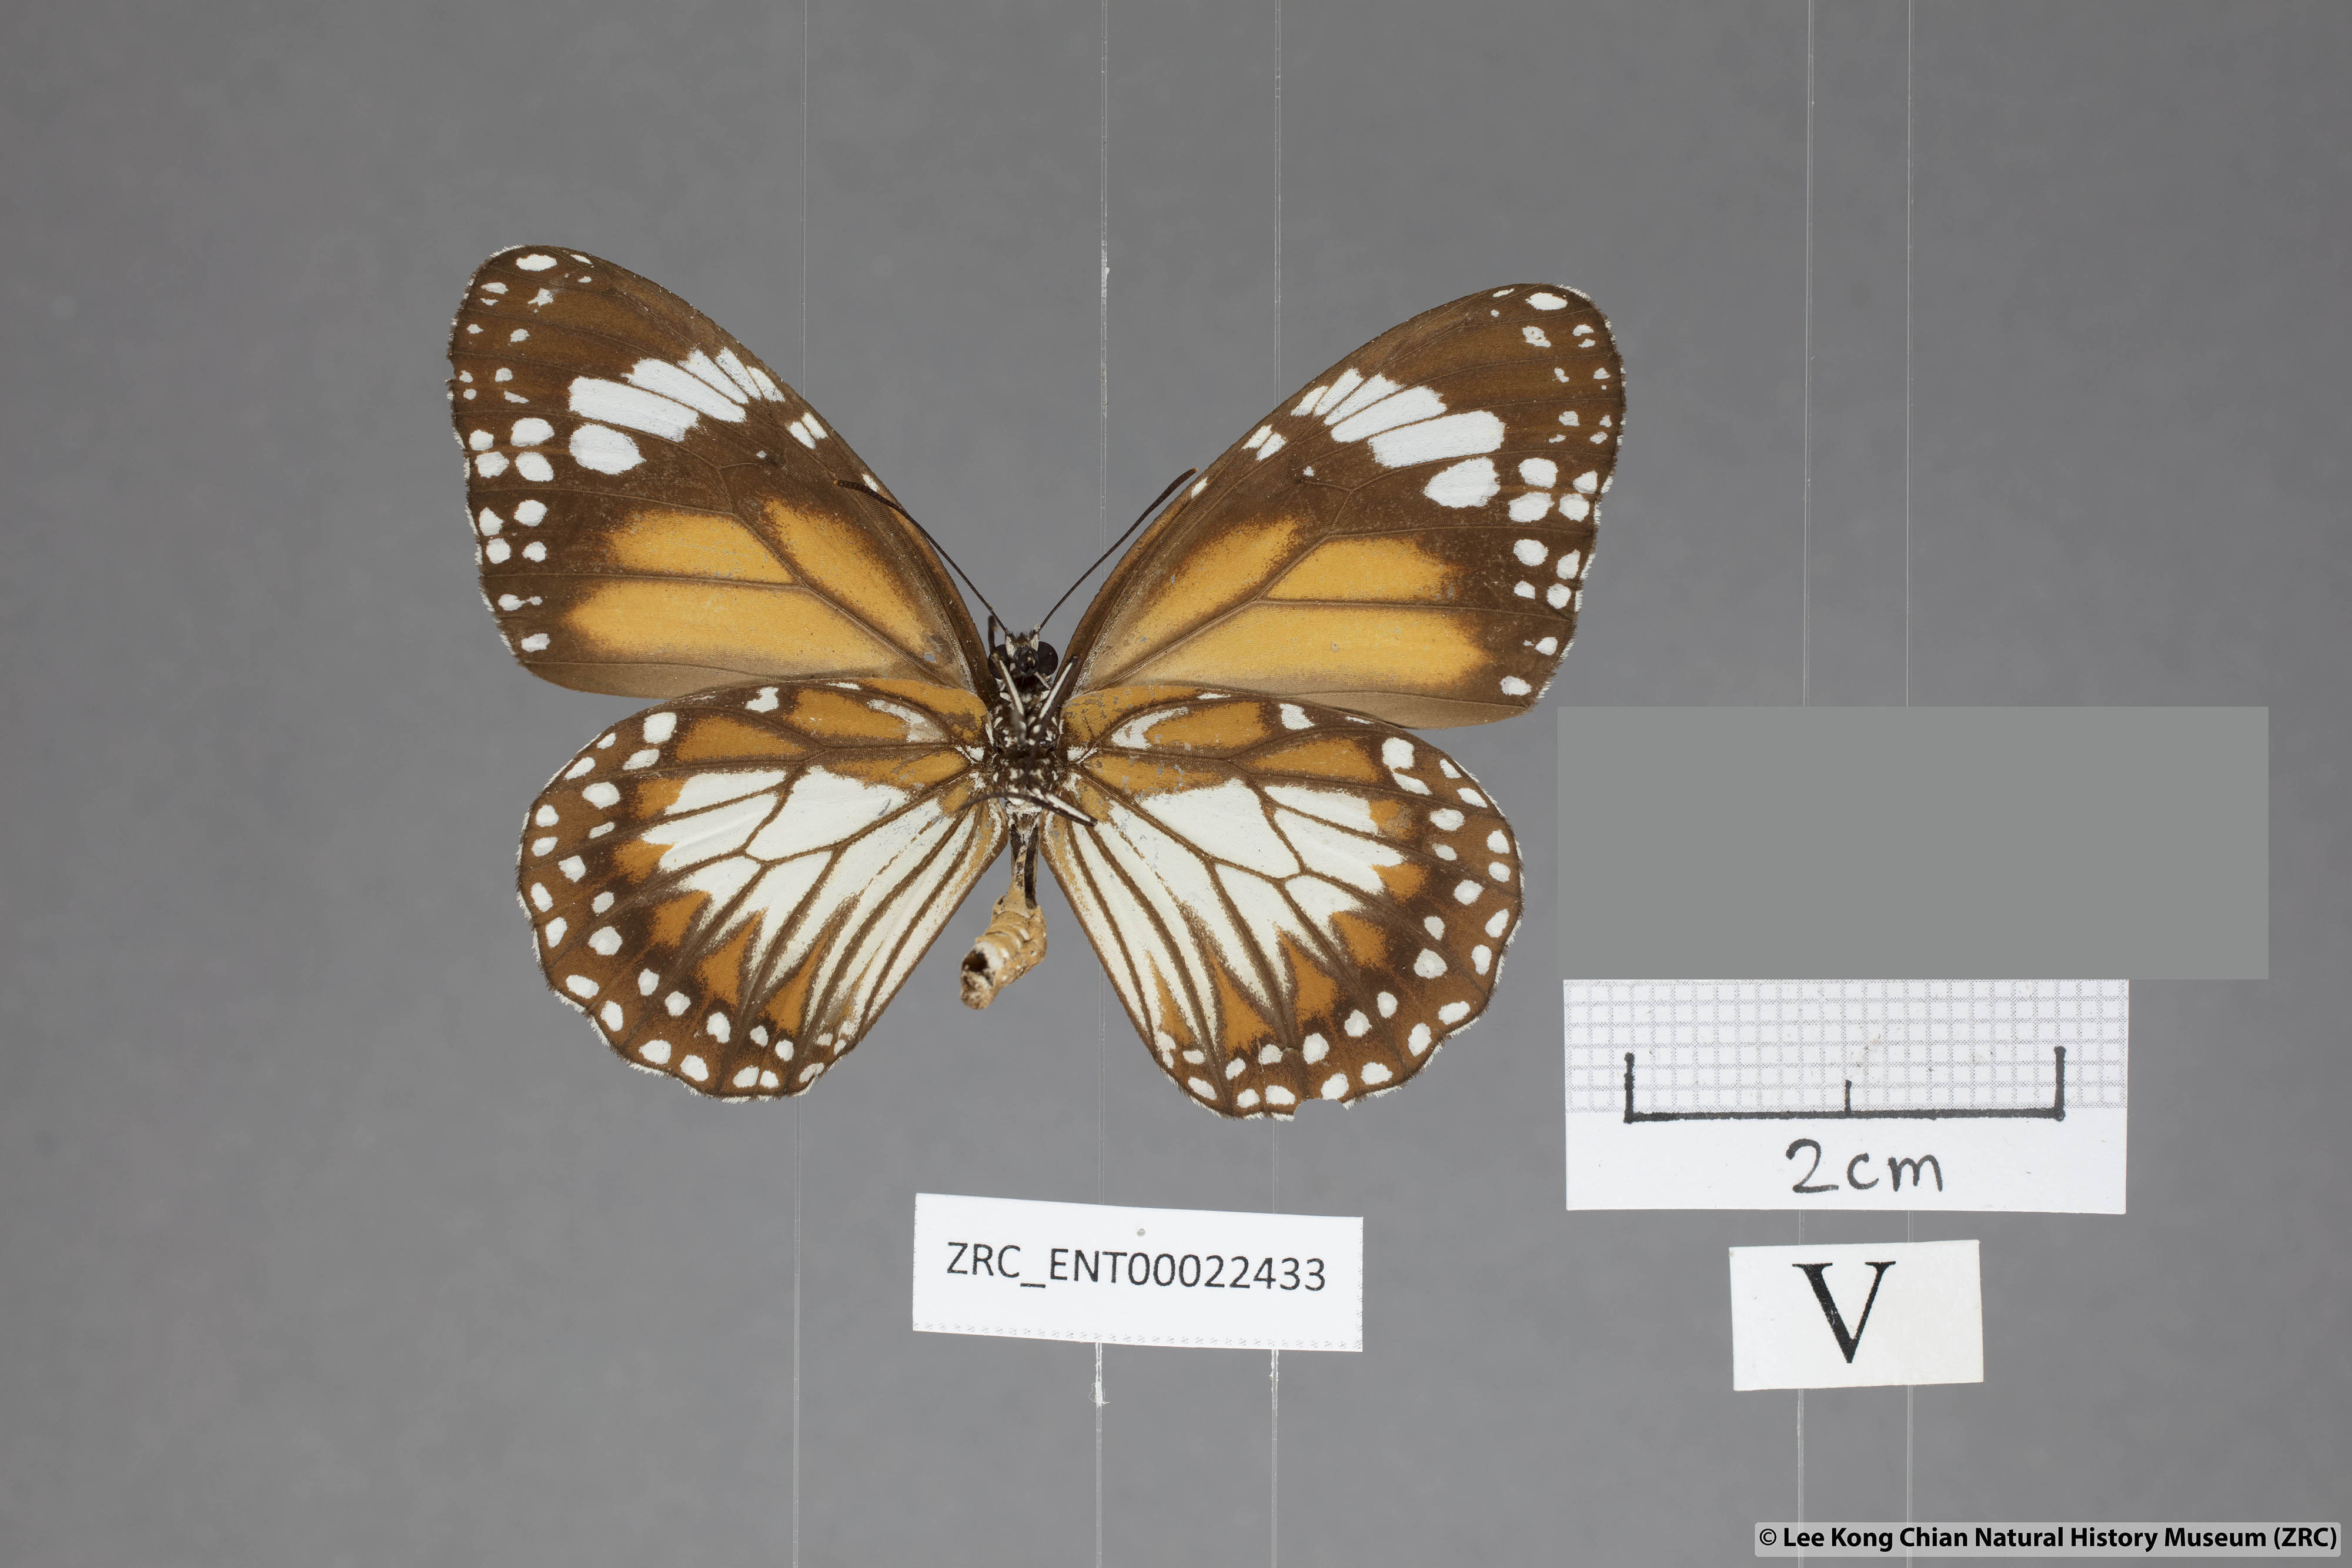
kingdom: Animalia
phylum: Arthropoda
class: Insecta
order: Lepidoptera
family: Nymphalidae
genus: Danaus
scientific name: Danaus affinis
